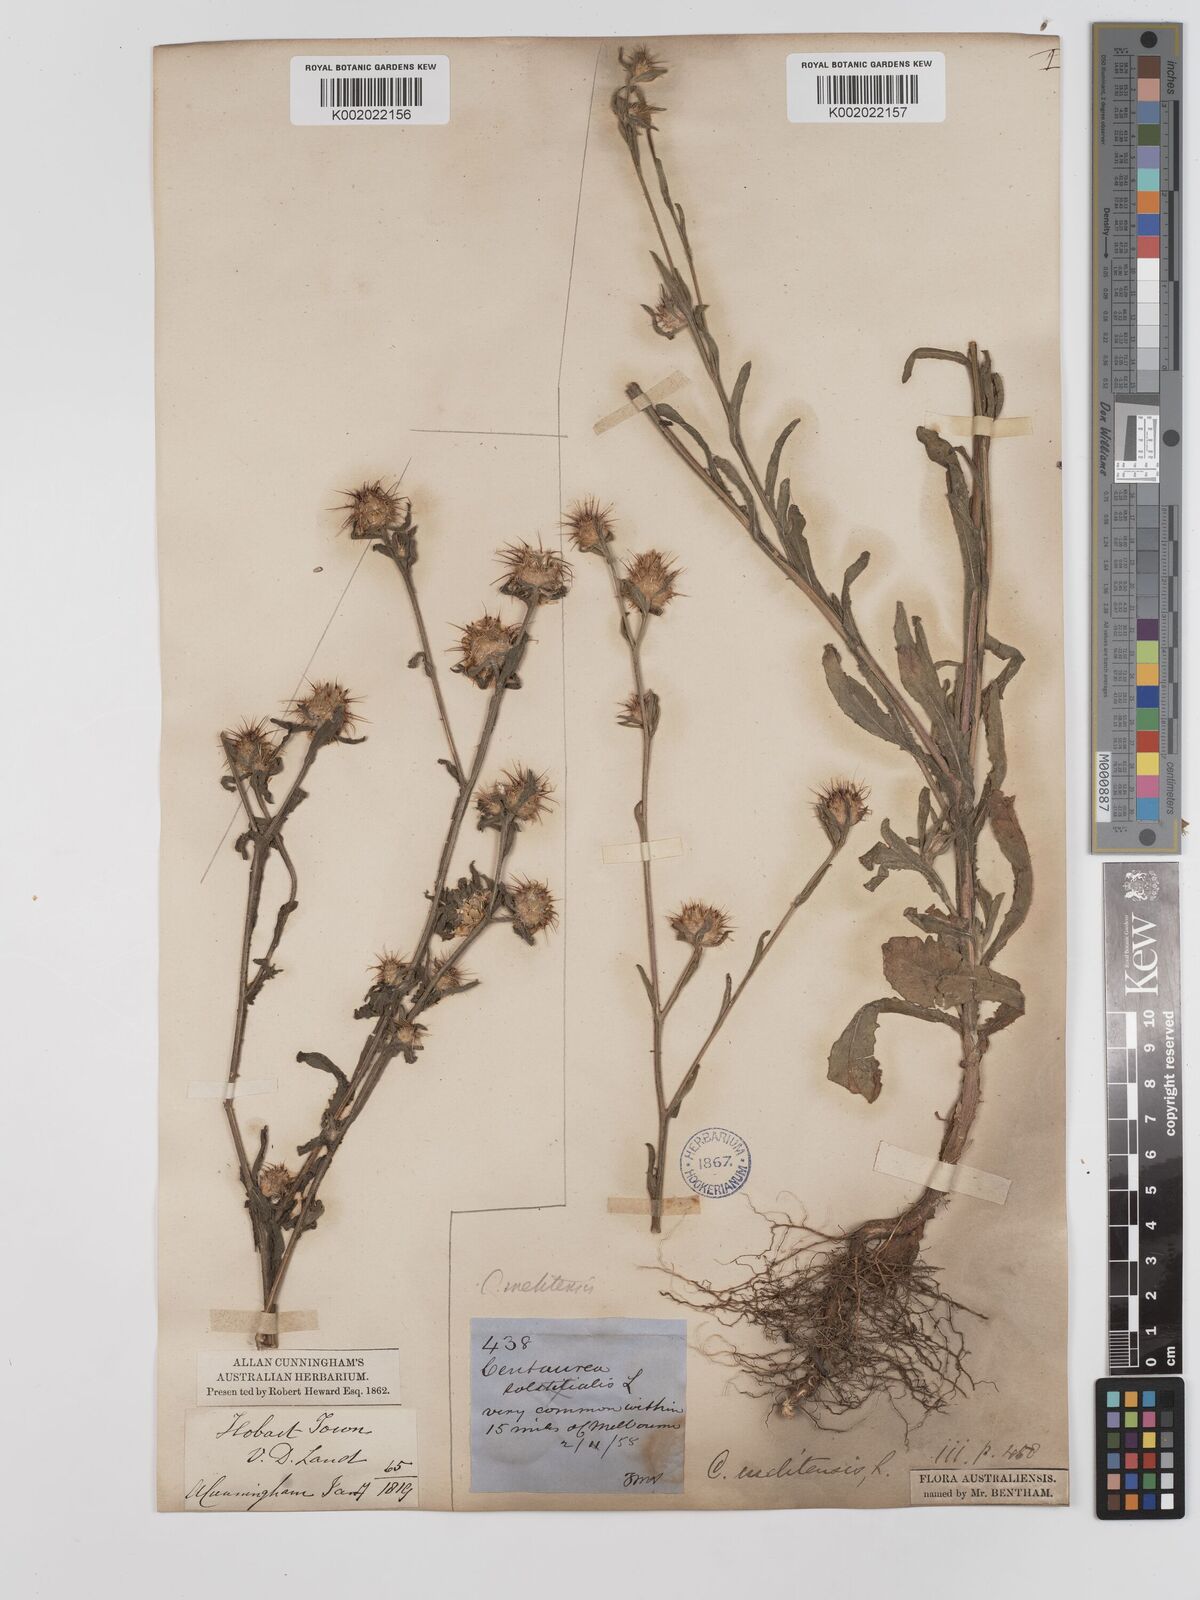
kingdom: Plantae
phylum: Tracheophyta
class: Magnoliopsida
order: Asterales
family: Asteraceae
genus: Centaurea
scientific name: Centaurea melitensis
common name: Maltese star-thistle
